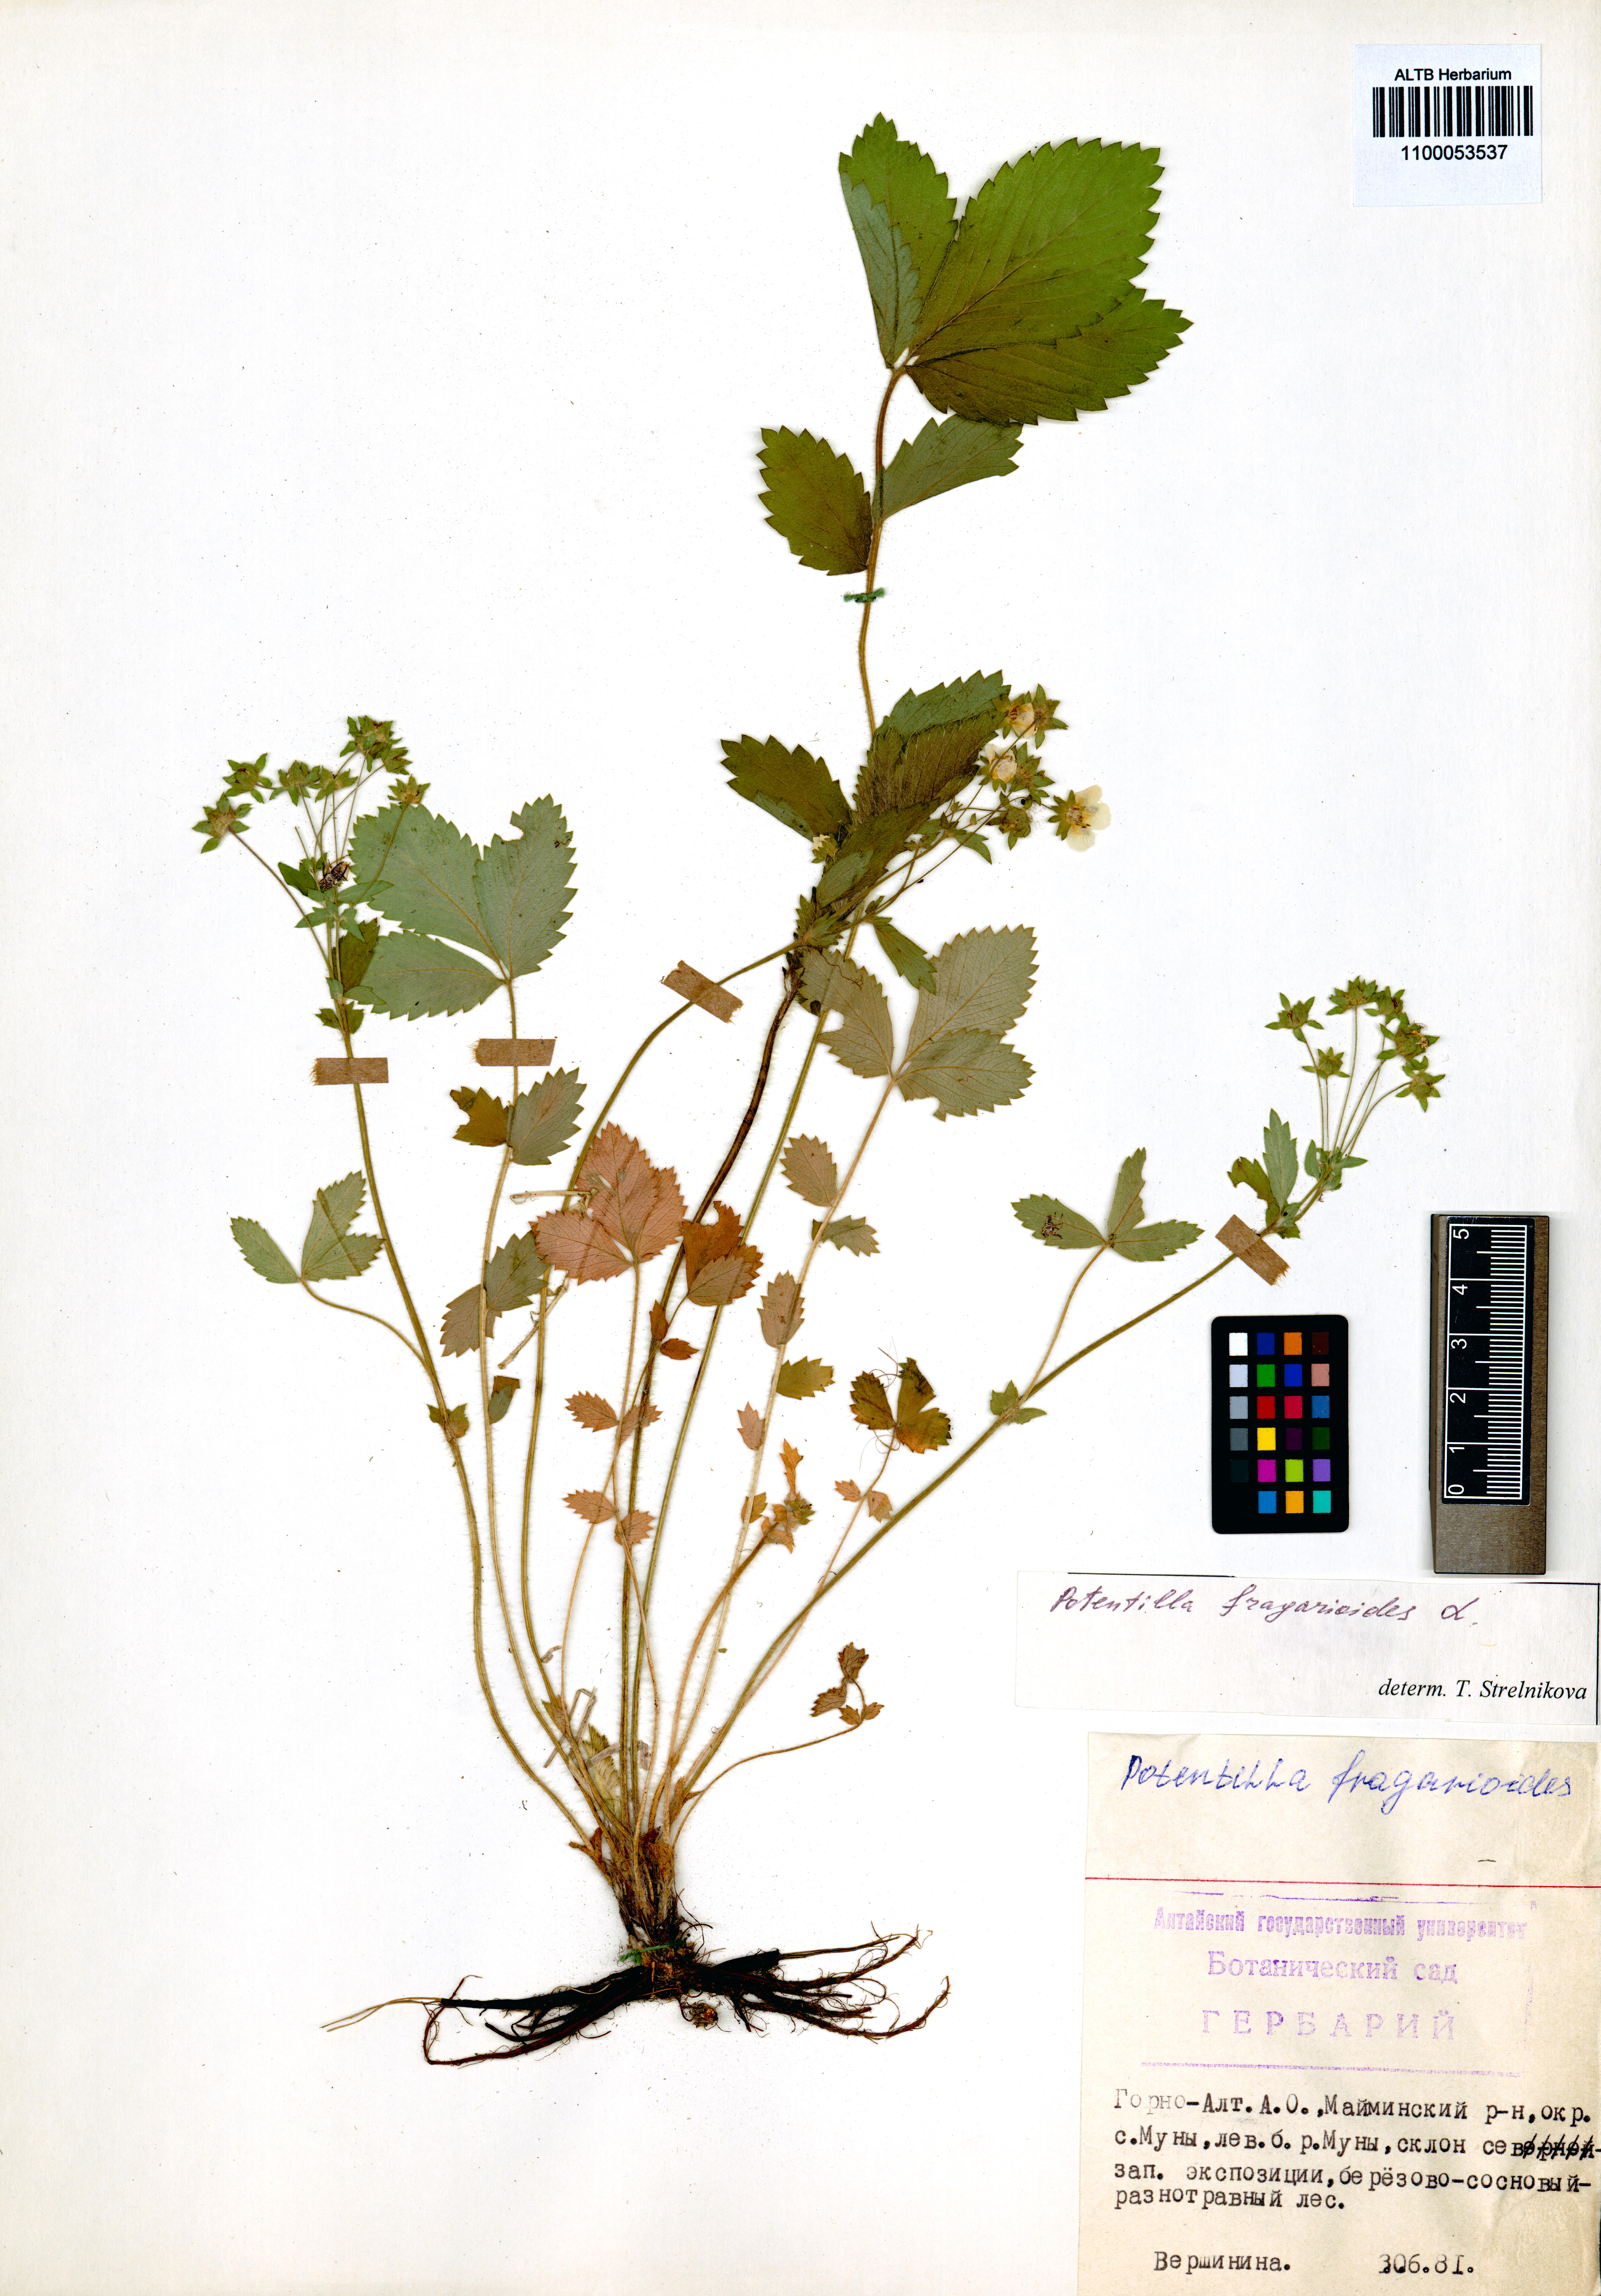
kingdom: Plantae
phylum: Tracheophyta
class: Magnoliopsida
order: Rosales
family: Rosaceae
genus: Potentilla
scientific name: Potentilla fragarioides
